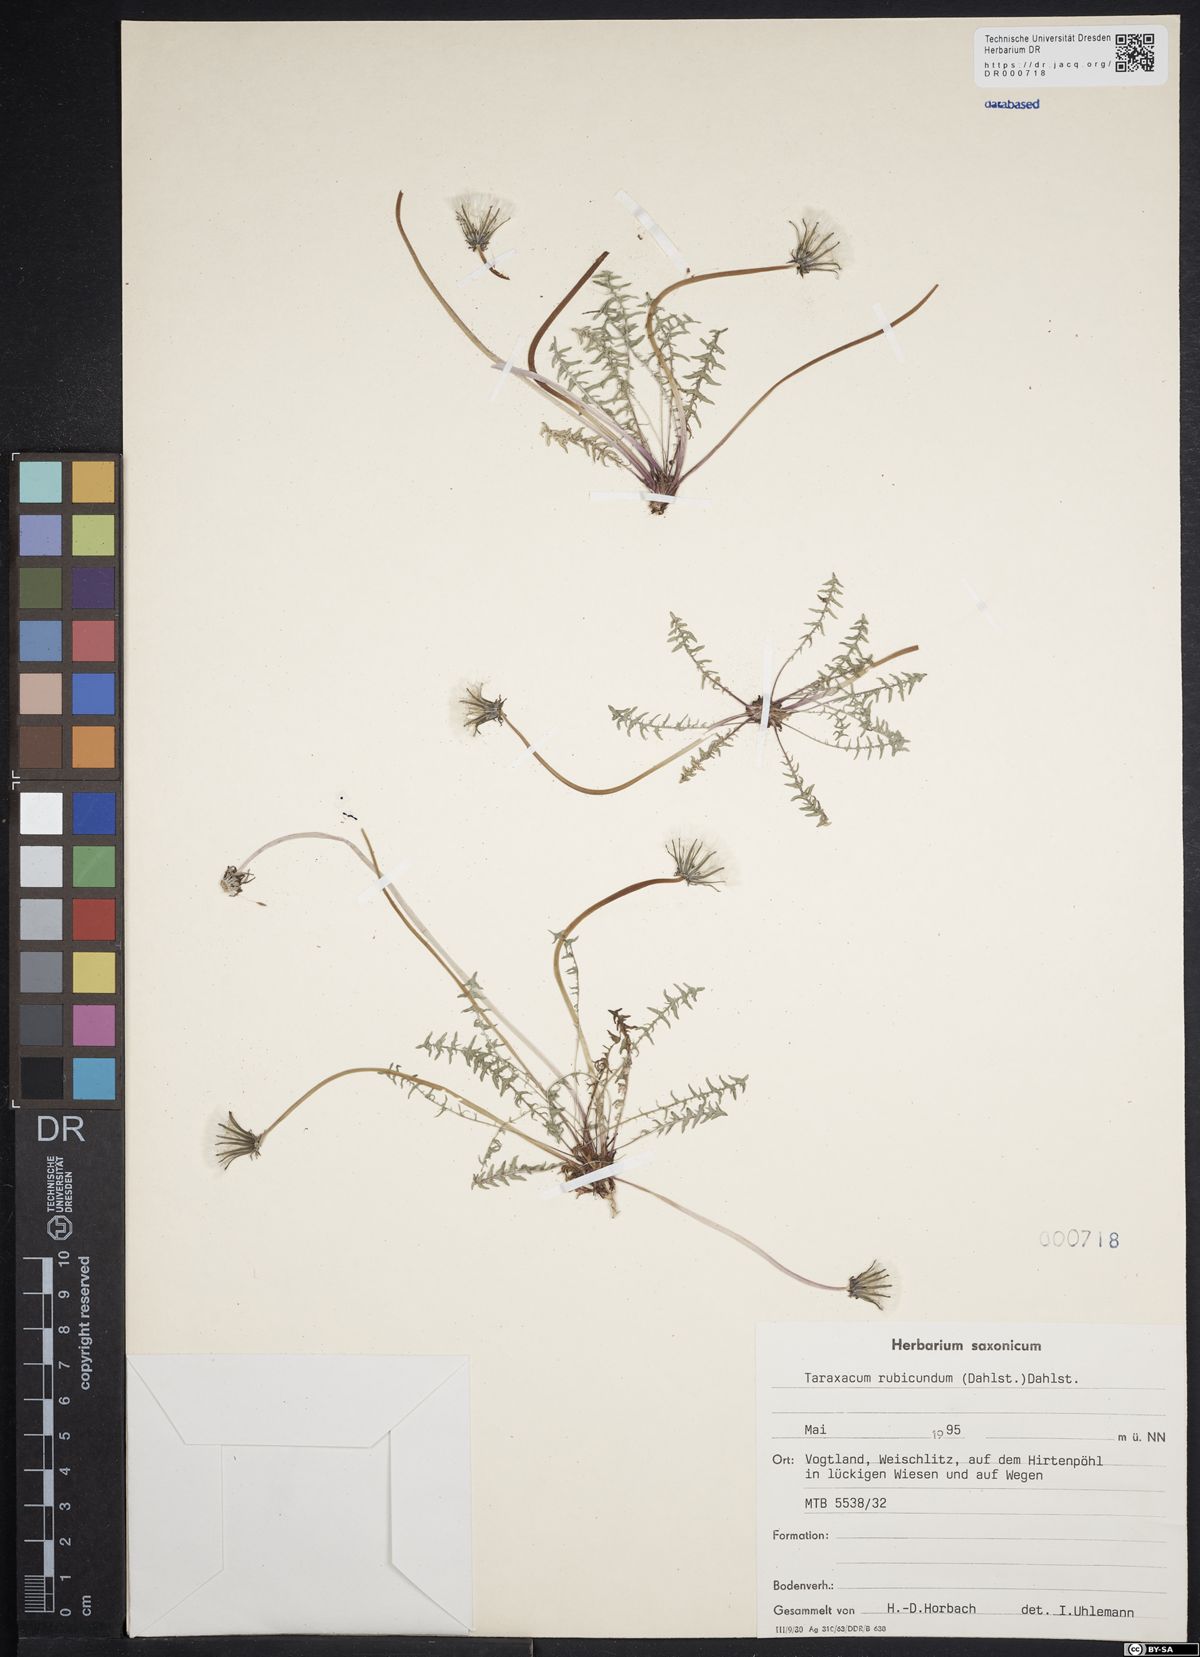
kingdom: Plantae
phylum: Tracheophyta
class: Magnoliopsida
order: Asterales
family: Asteraceae
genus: Taraxacum
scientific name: Taraxacum rubicundum
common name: Ruddy dandelion
